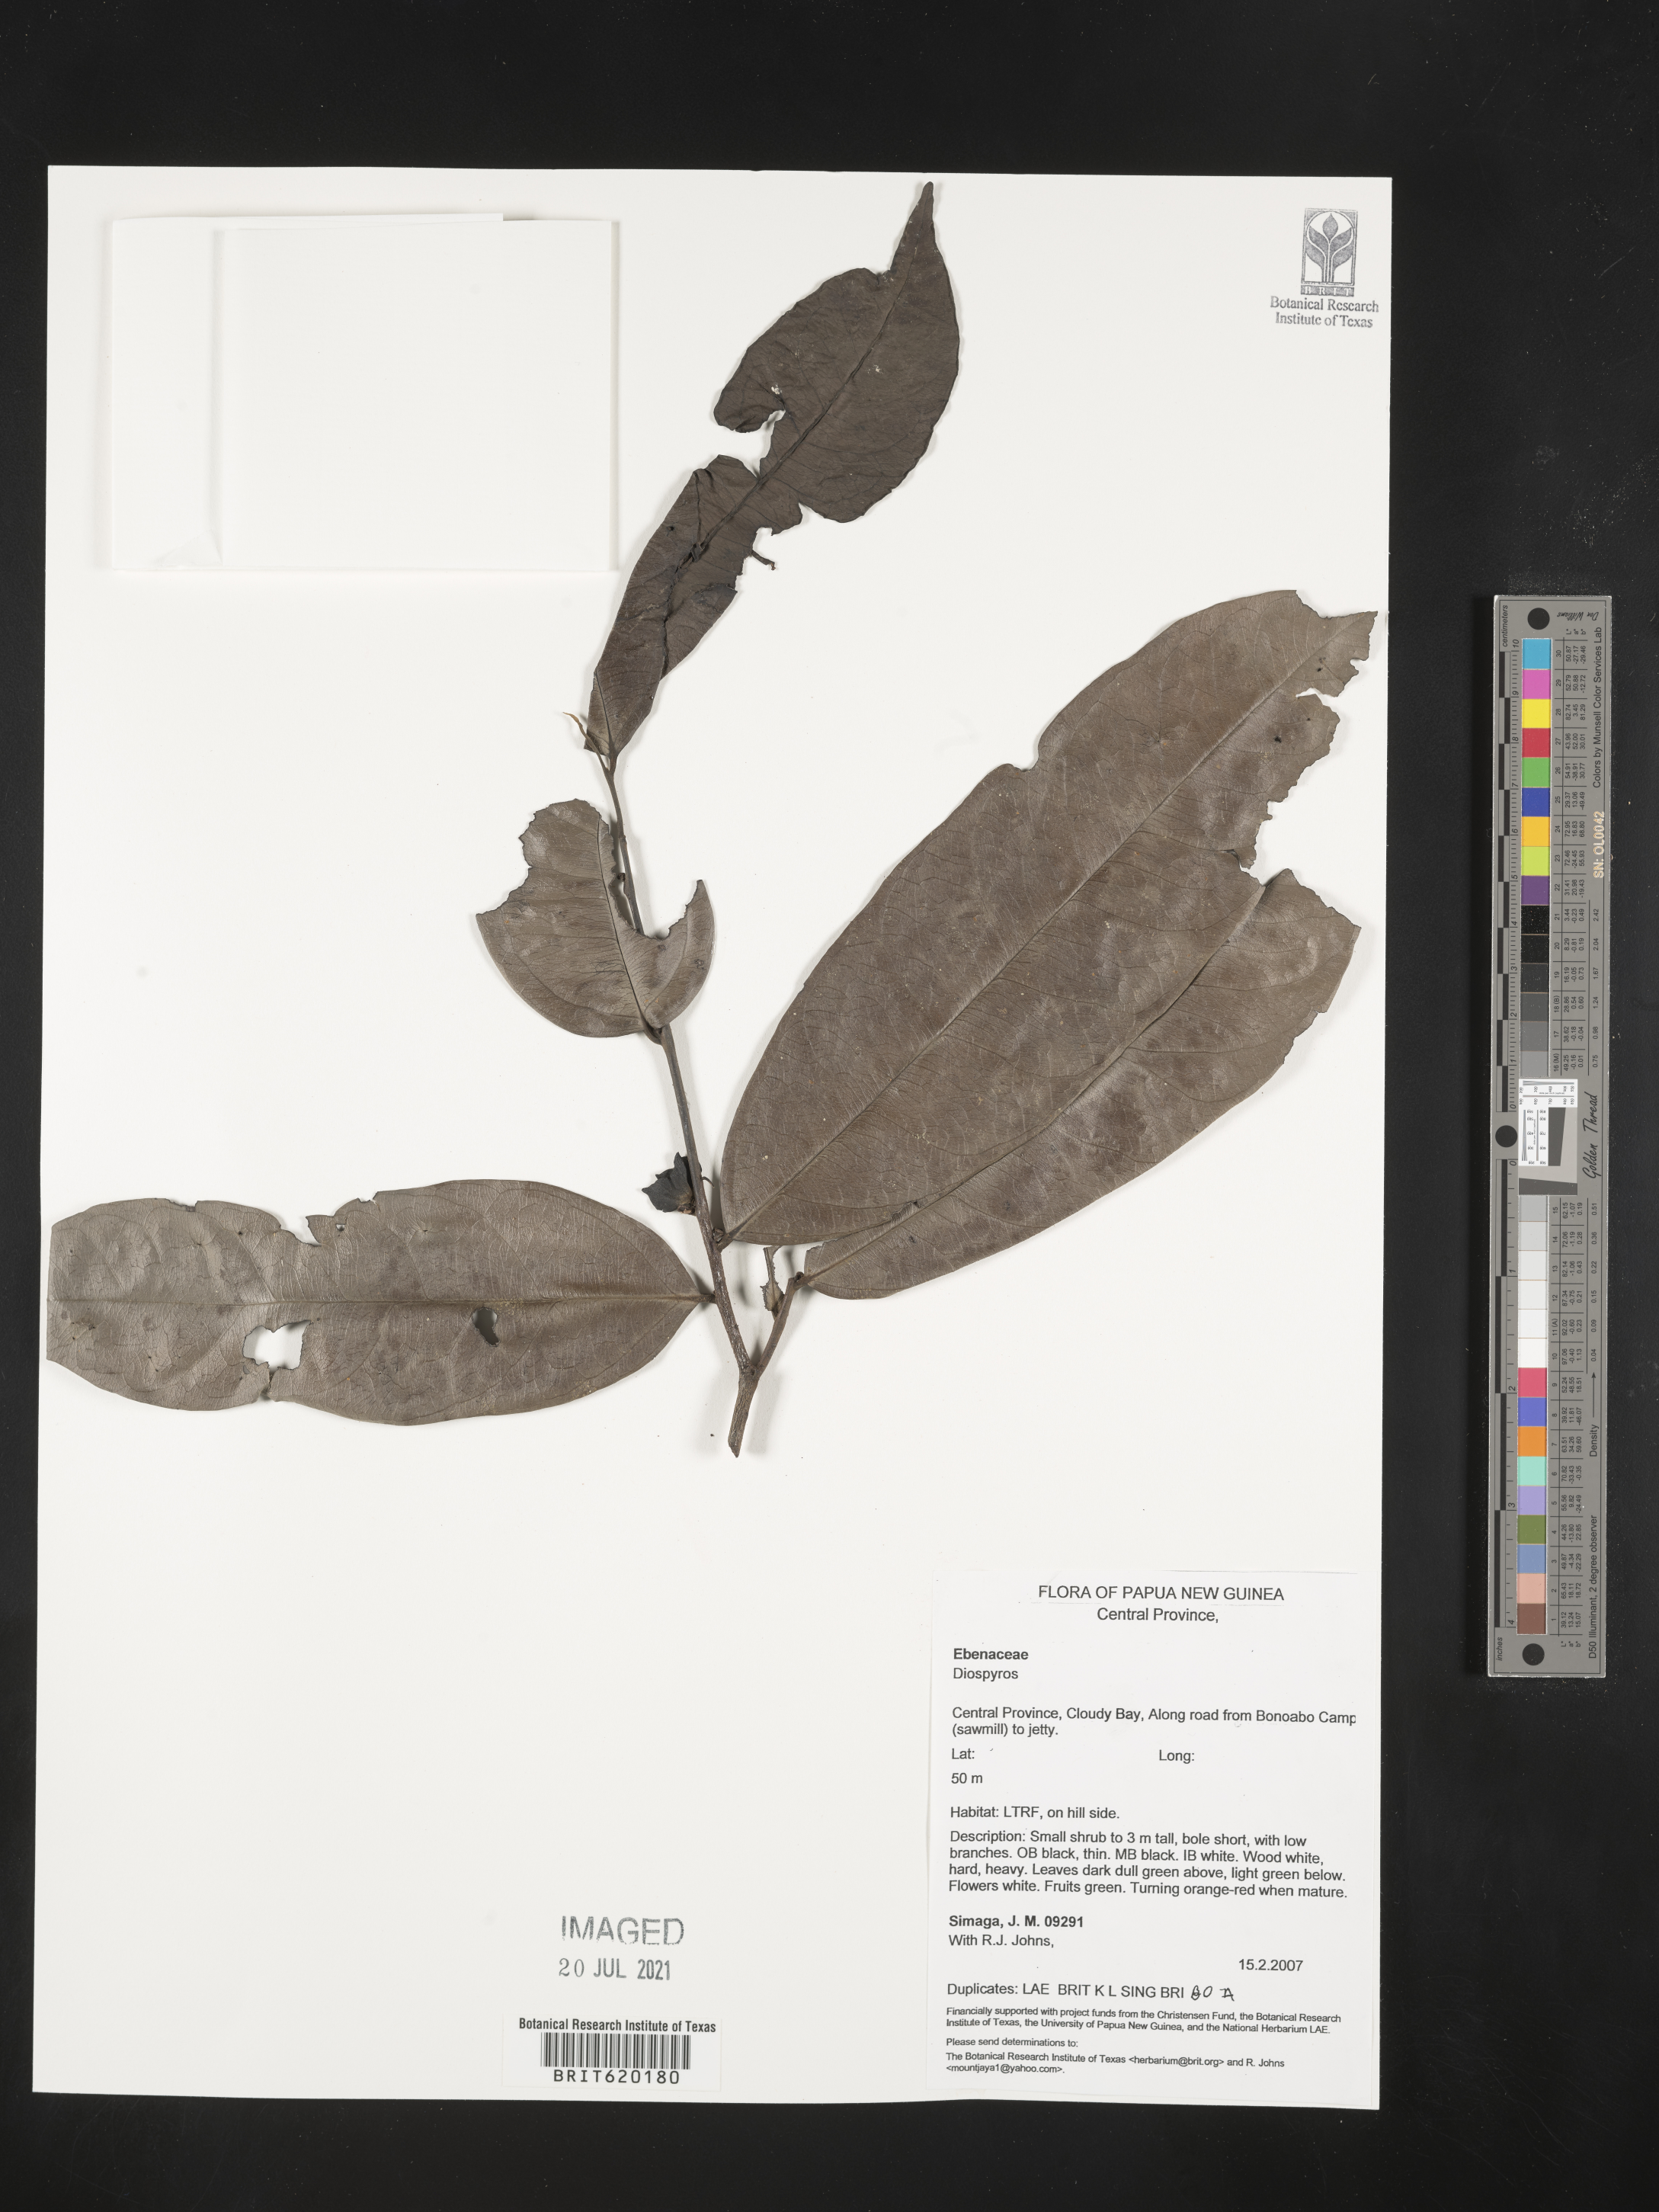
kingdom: Plantae
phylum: Tracheophyta
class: Magnoliopsida
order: Ericales
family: Ebenaceae
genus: Diospyros
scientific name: Diospyros
